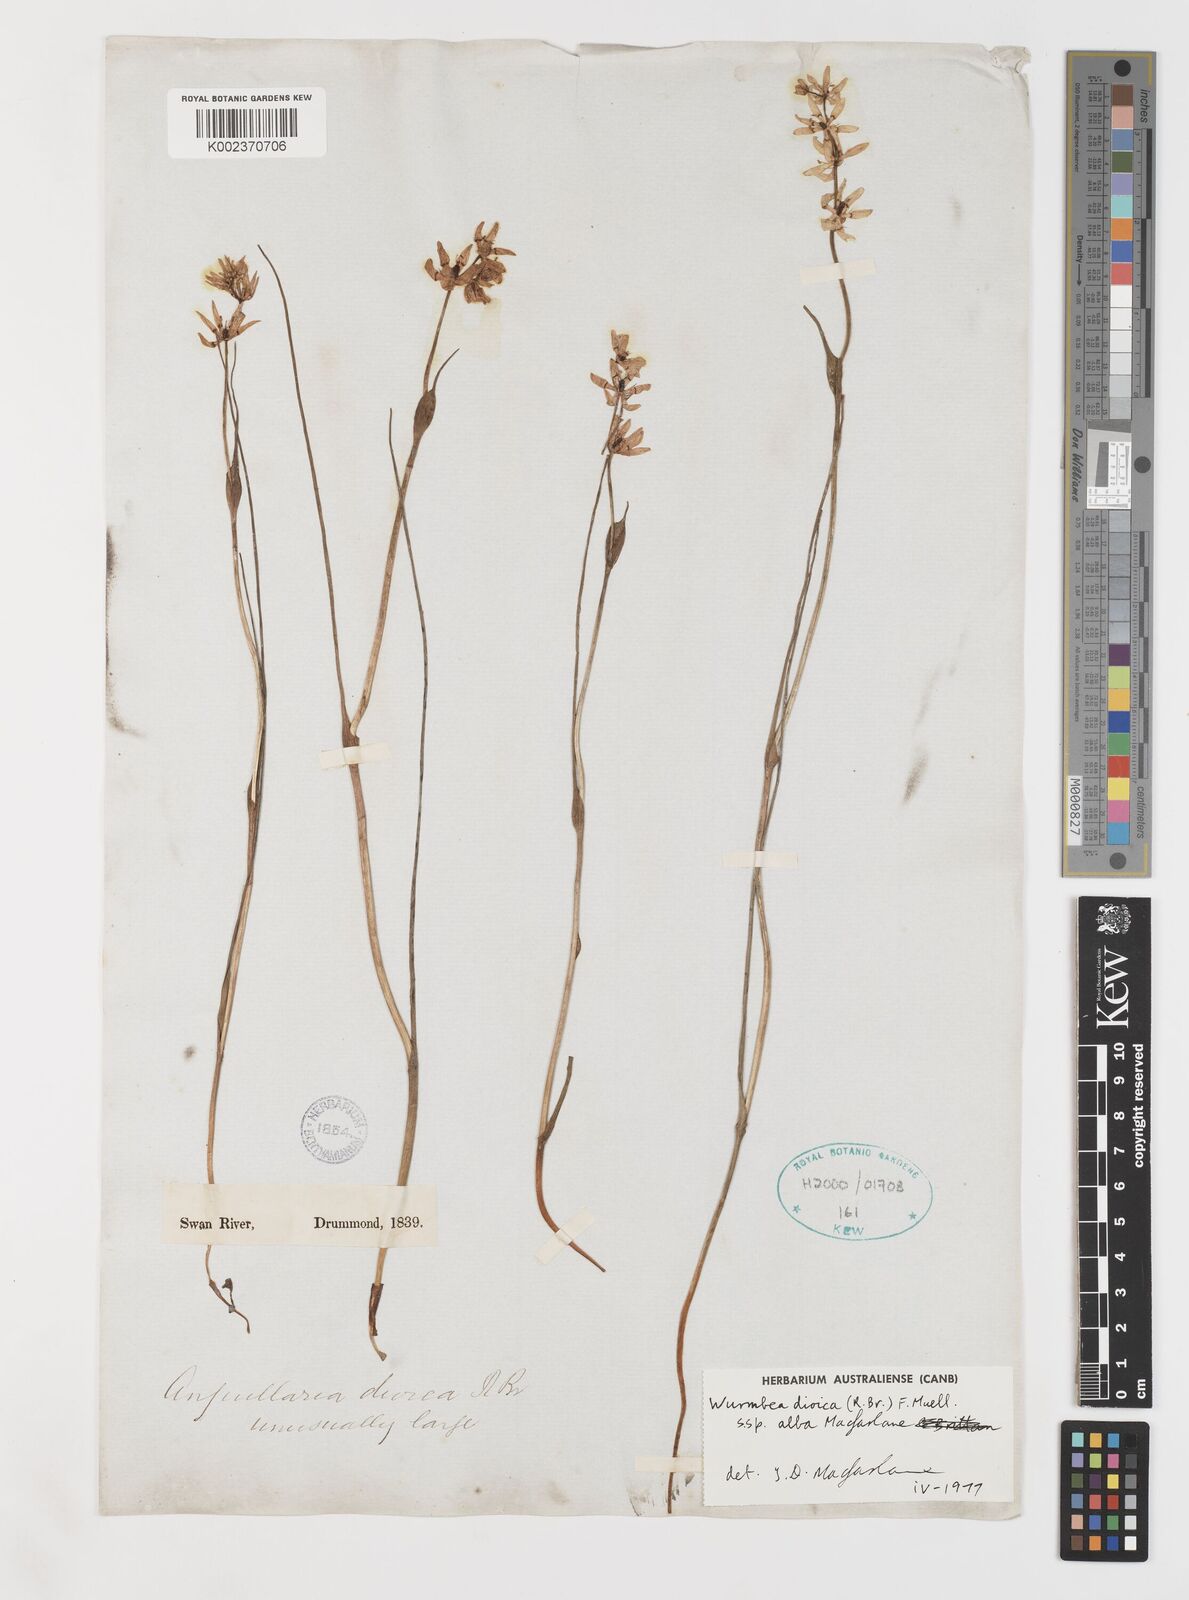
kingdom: Plantae
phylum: Tracheophyta
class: Liliopsida
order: Liliales
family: Colchicaceae
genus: Wurmbea
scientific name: Wurmbea dioica
